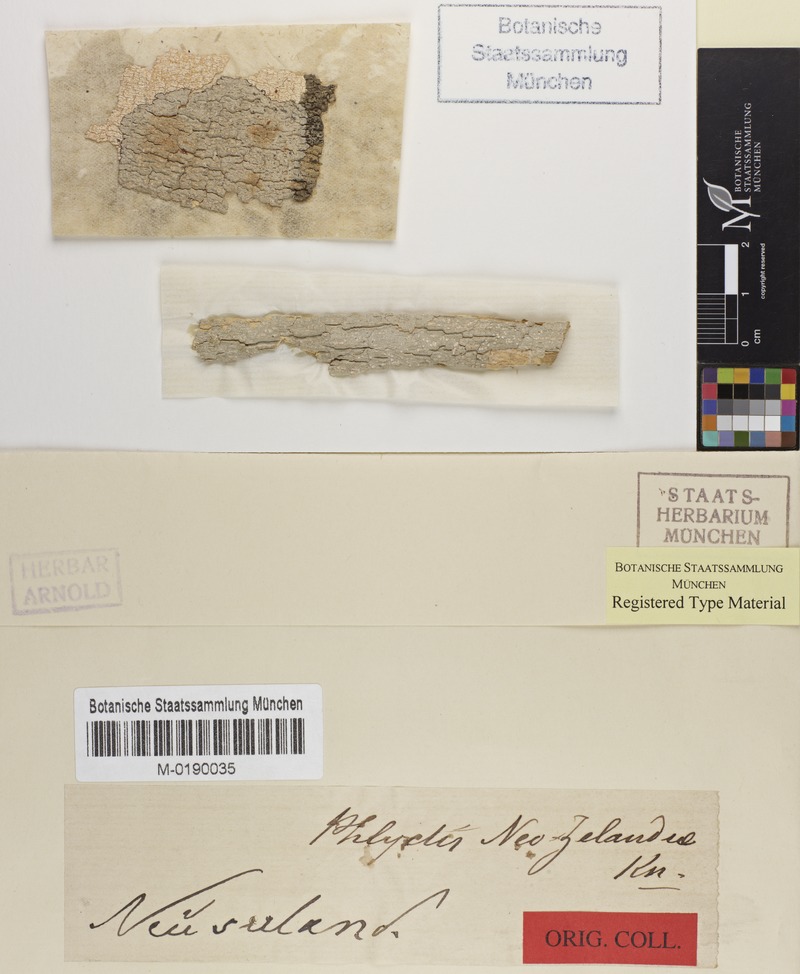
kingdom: Fungi
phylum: Ascomycota
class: Lecanoromycetes
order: Ostropales
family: Phlyctidaceae
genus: Phlyctis
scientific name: Phlyctis
